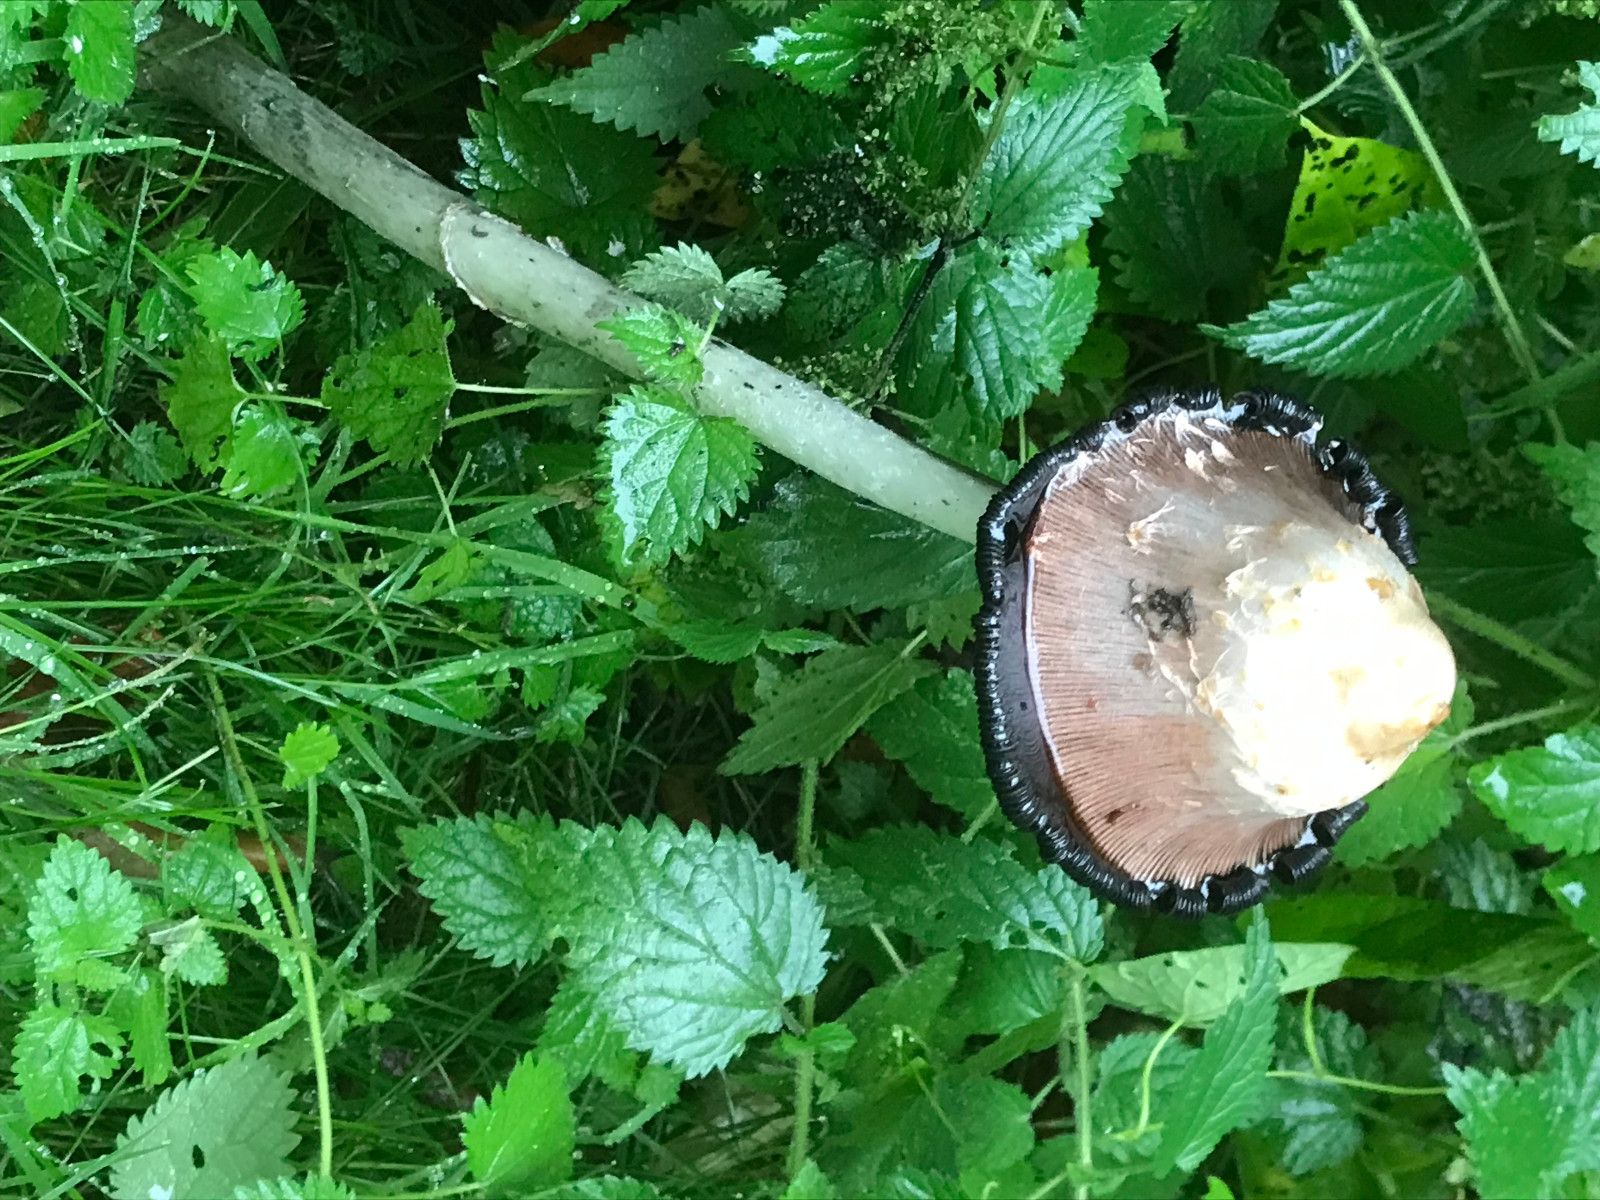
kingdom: Fungi
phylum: Basidiomycota
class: Agaricomycetes
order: Agaricales
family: Psathyrellaceae
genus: Coprinopsis
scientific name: Coprinopsis atramentaria
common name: almindelig blækhat
